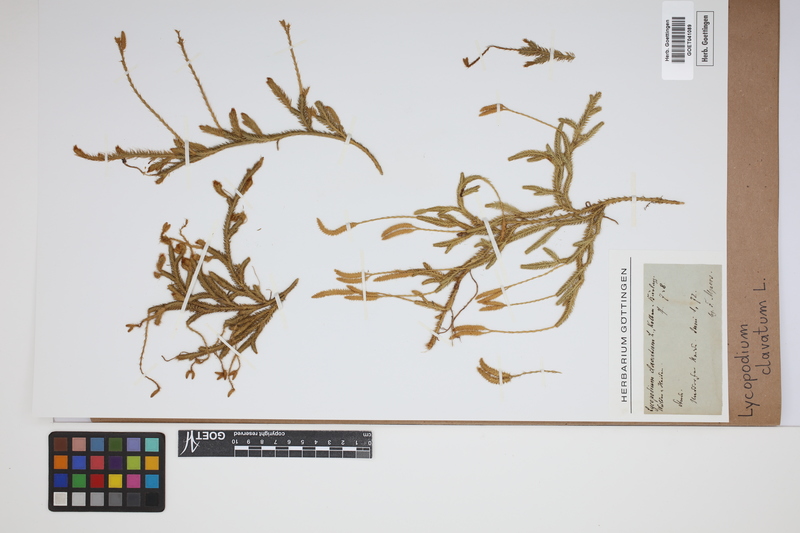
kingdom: Plantae
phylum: Tracheophyta
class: Lycopodiopsida
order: Lycopodiales
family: Lycopodiaceae
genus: Lycopodium
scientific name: Lycopodium clavatum
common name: Stag's-horn clubmoss
